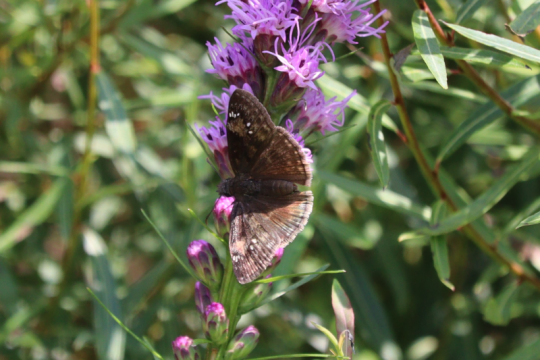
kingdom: Animalia
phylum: Arthropoda
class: Insecta
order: Lepidoptera
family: Hesperiidae
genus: Gesta
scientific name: Gesta
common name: Wild Indigo Duskywing
